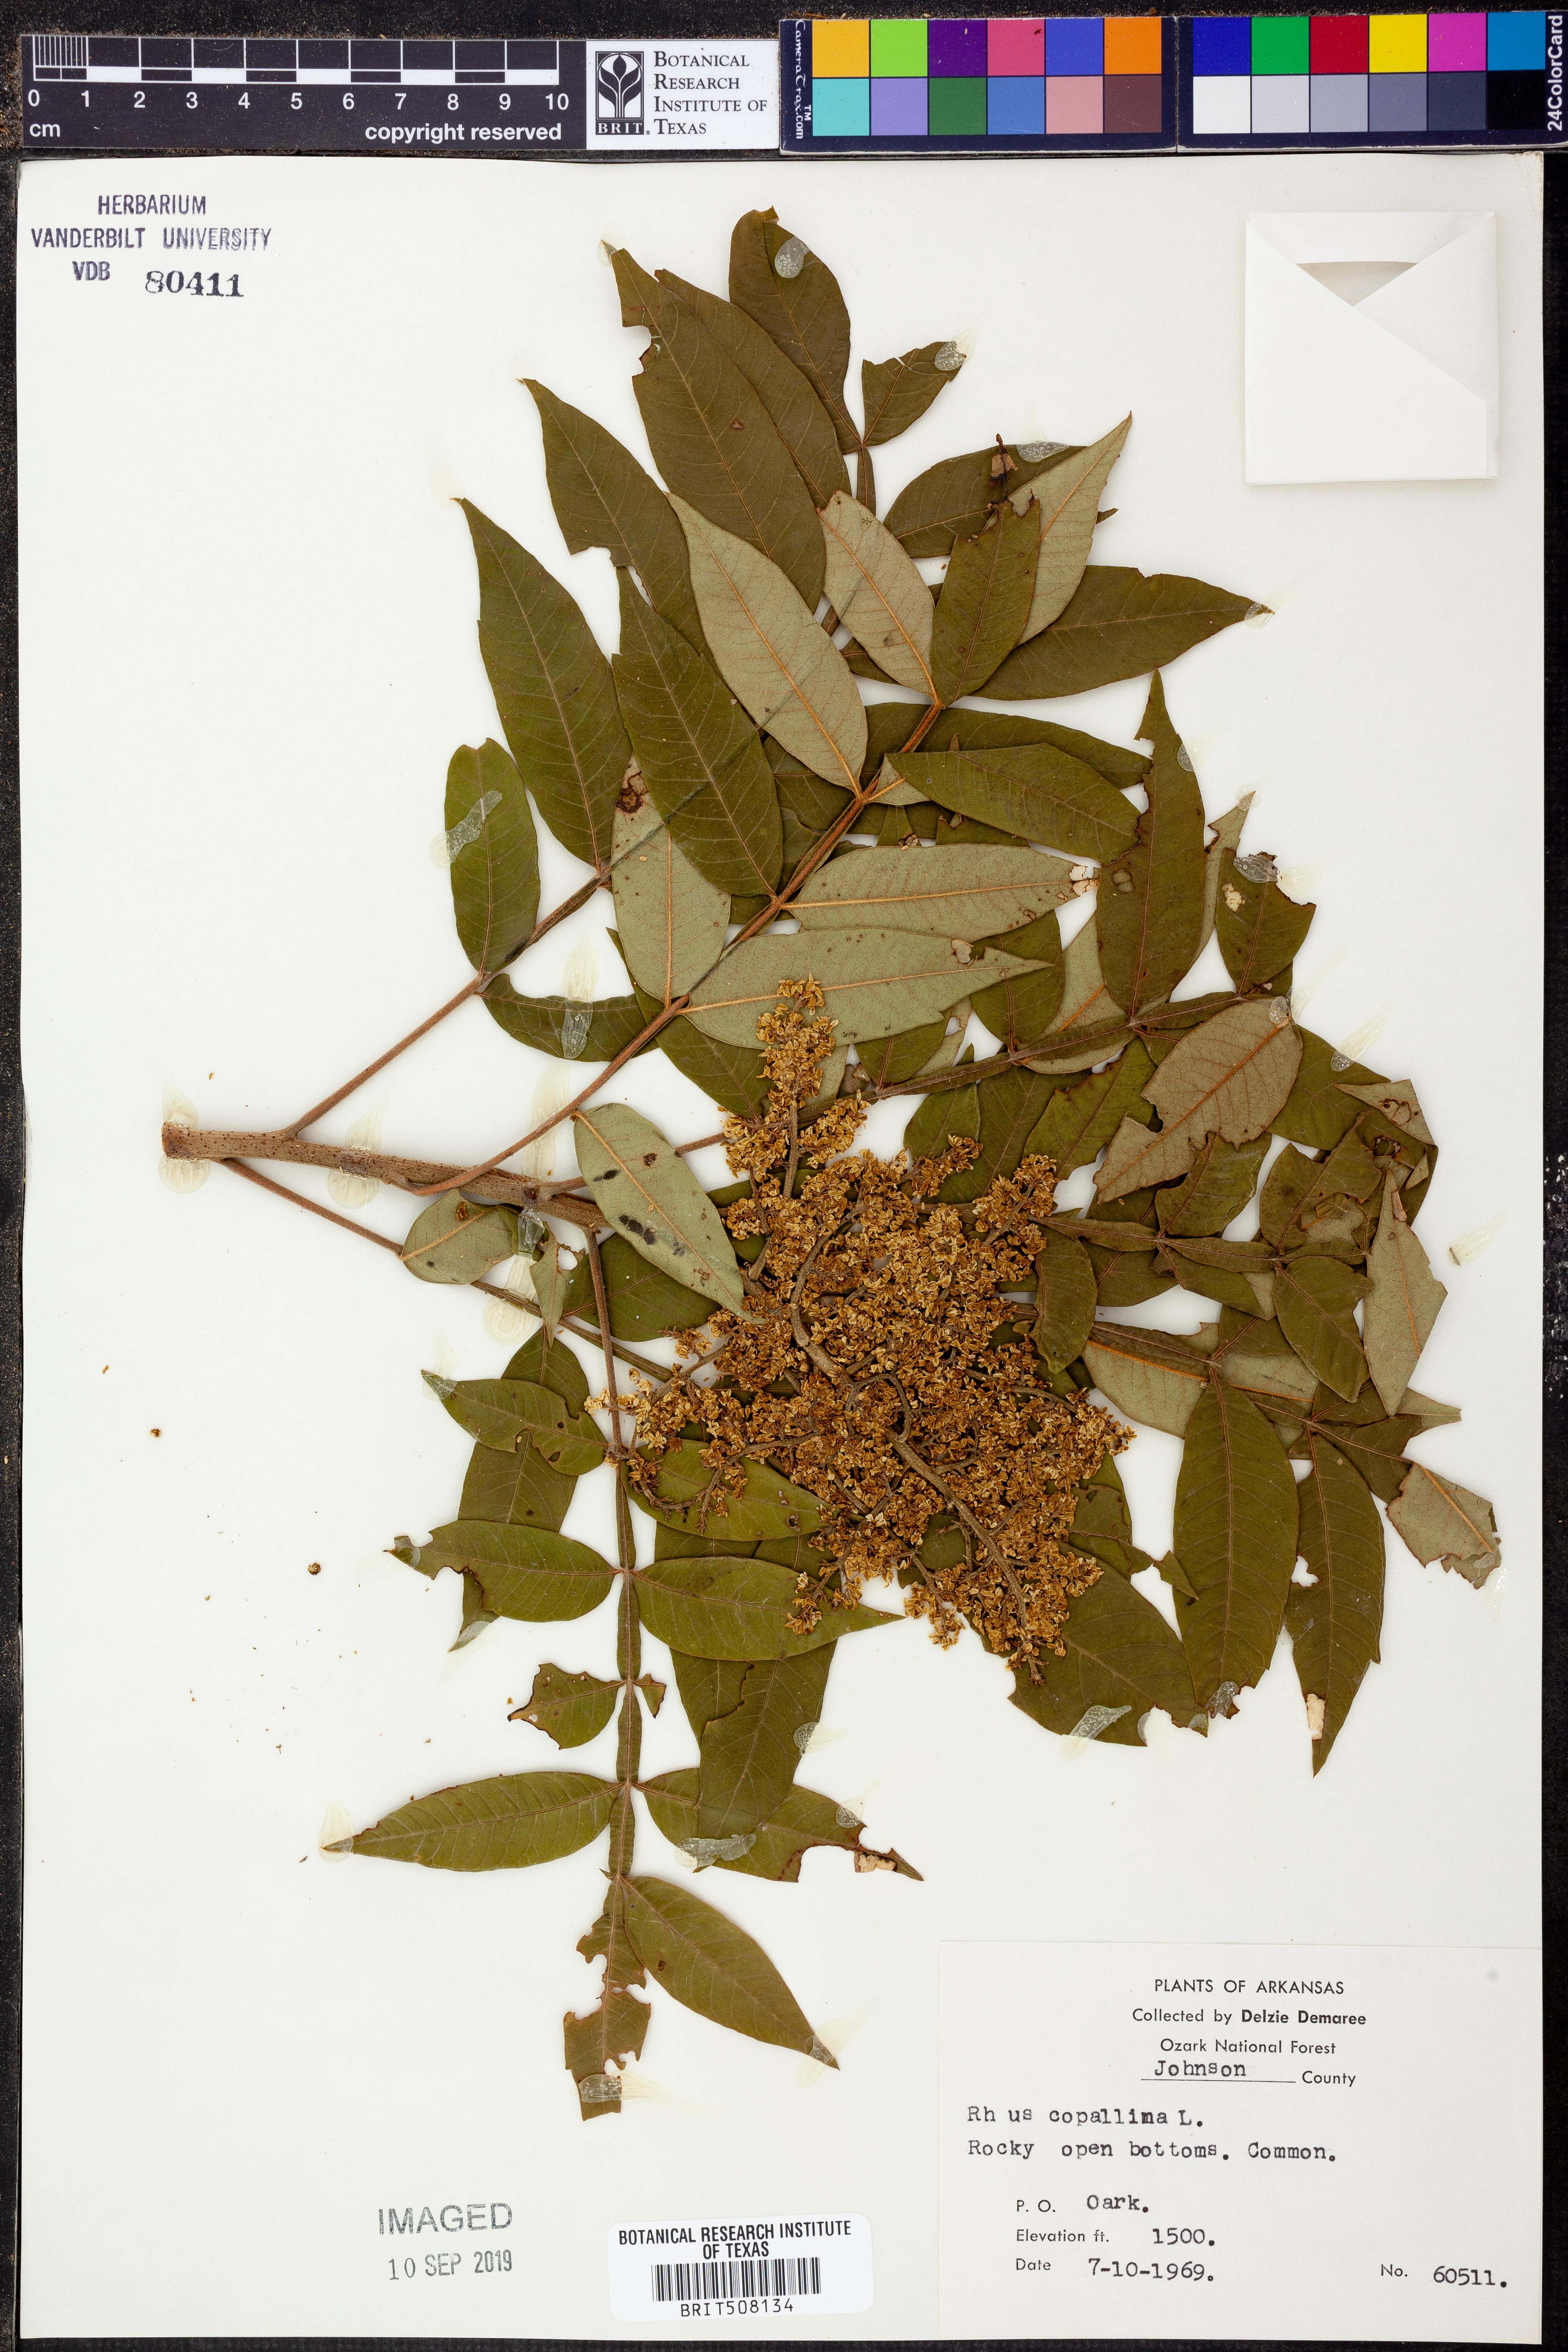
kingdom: Plantae
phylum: Tracheophyta
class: Magnoliopsida
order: Sapindales
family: Anacardiaceae
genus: Rhus
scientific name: Rhus copallina
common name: Shining sumac
